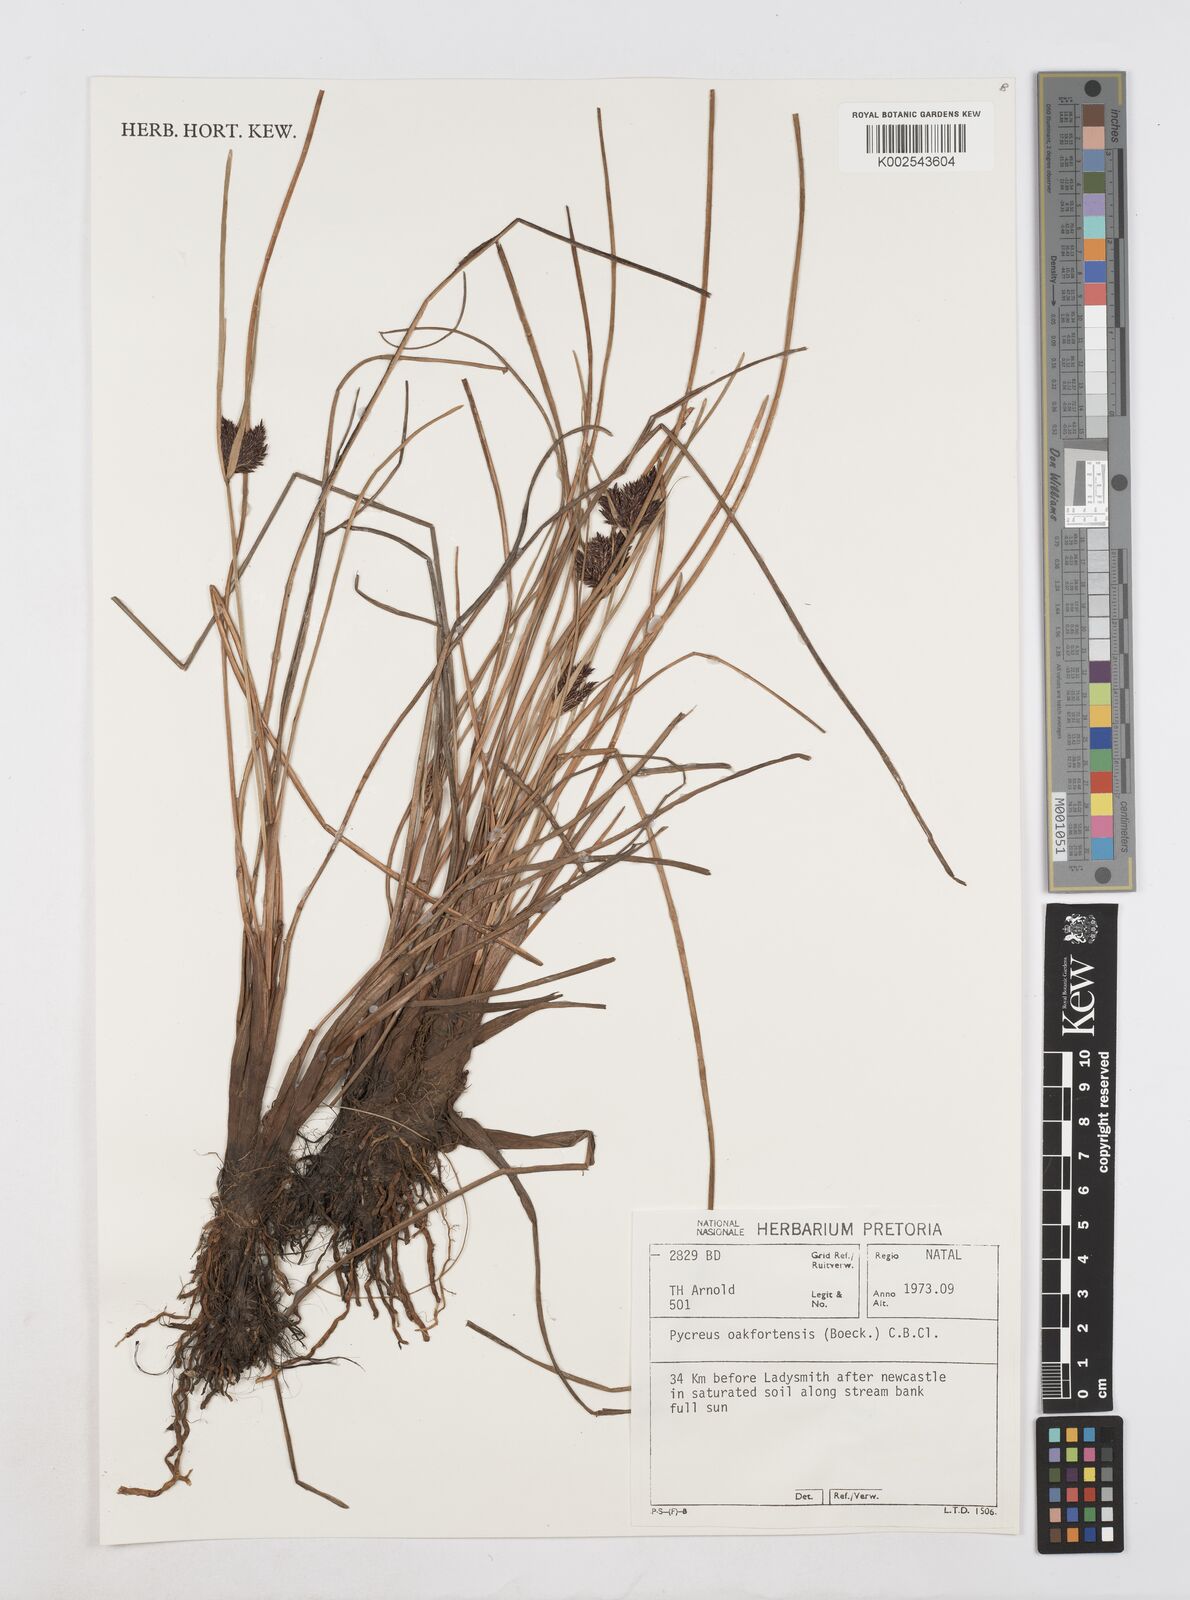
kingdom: Plantae
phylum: Tracheophyta
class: Liliopsida
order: Poales
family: Cyperaceae
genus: Cyperus
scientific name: Cyperus oakfortensis
